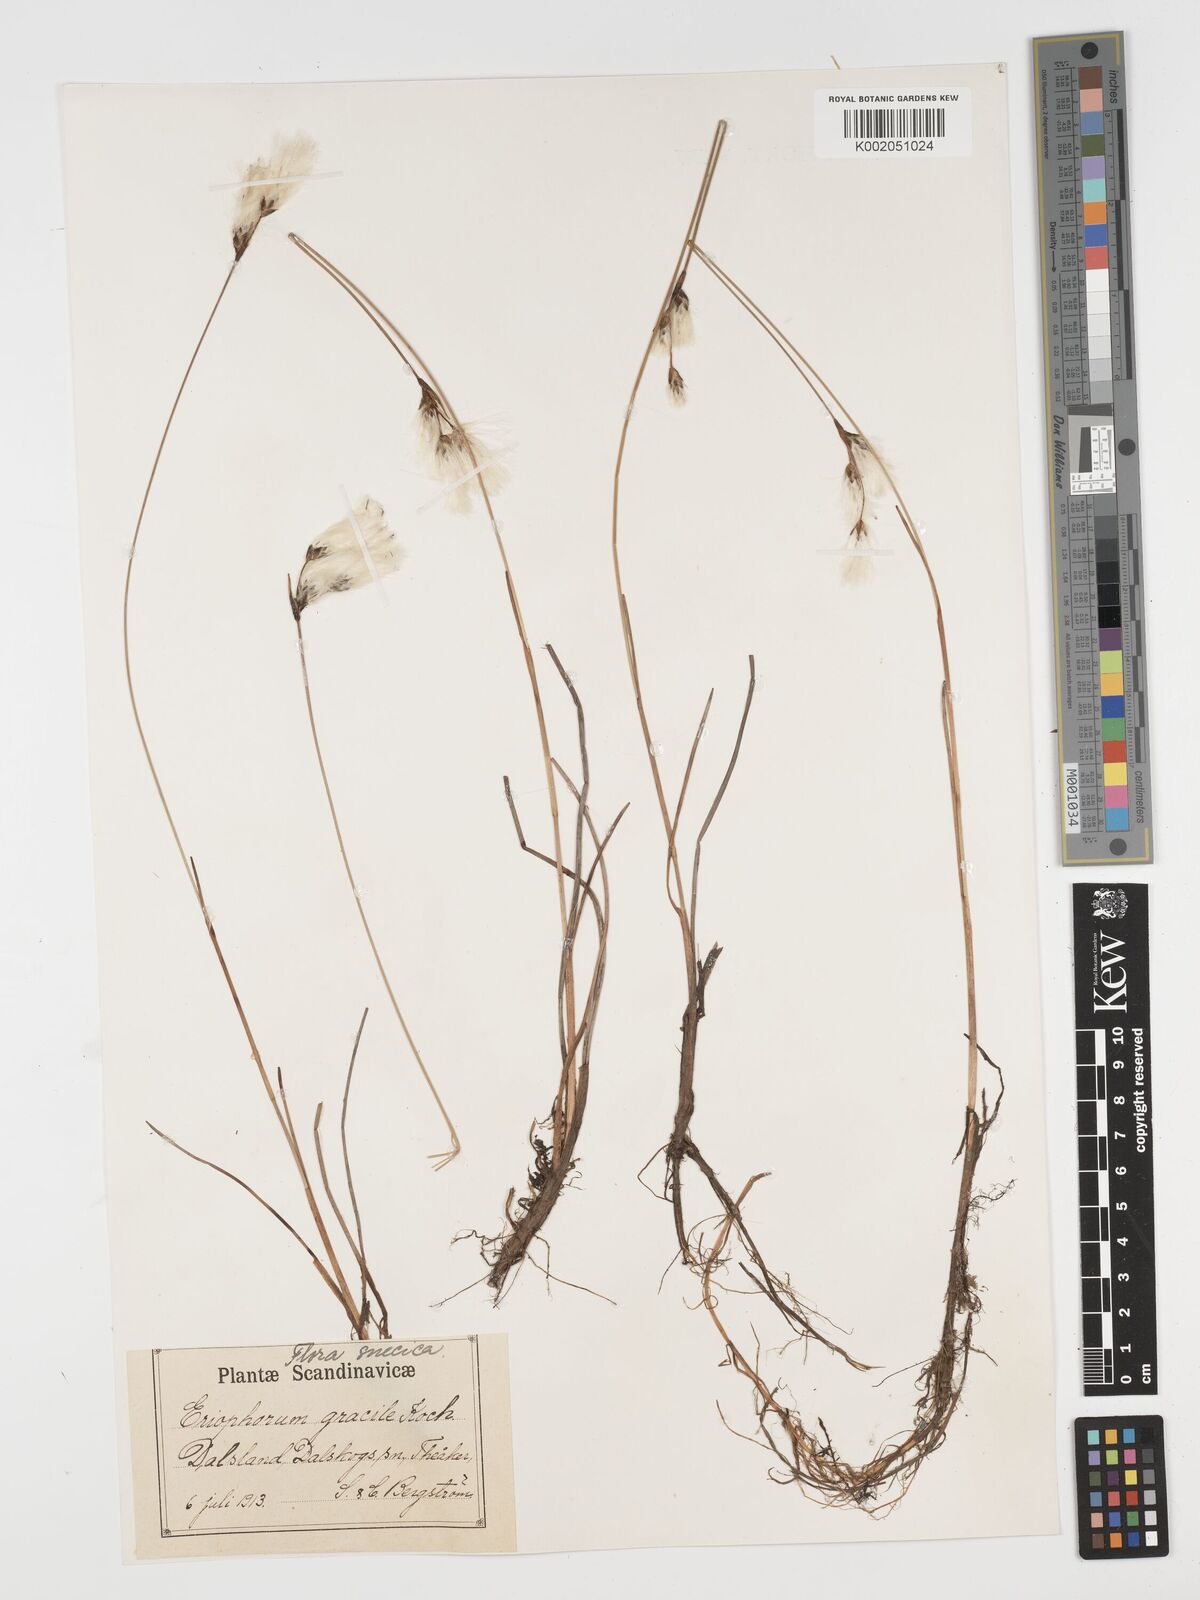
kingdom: Plantae
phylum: Tracheophyta
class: Liliopsida
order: Poales
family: Cyperaceae
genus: Eriophorum
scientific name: Eriophorum angustifolium
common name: Common cottongrass
